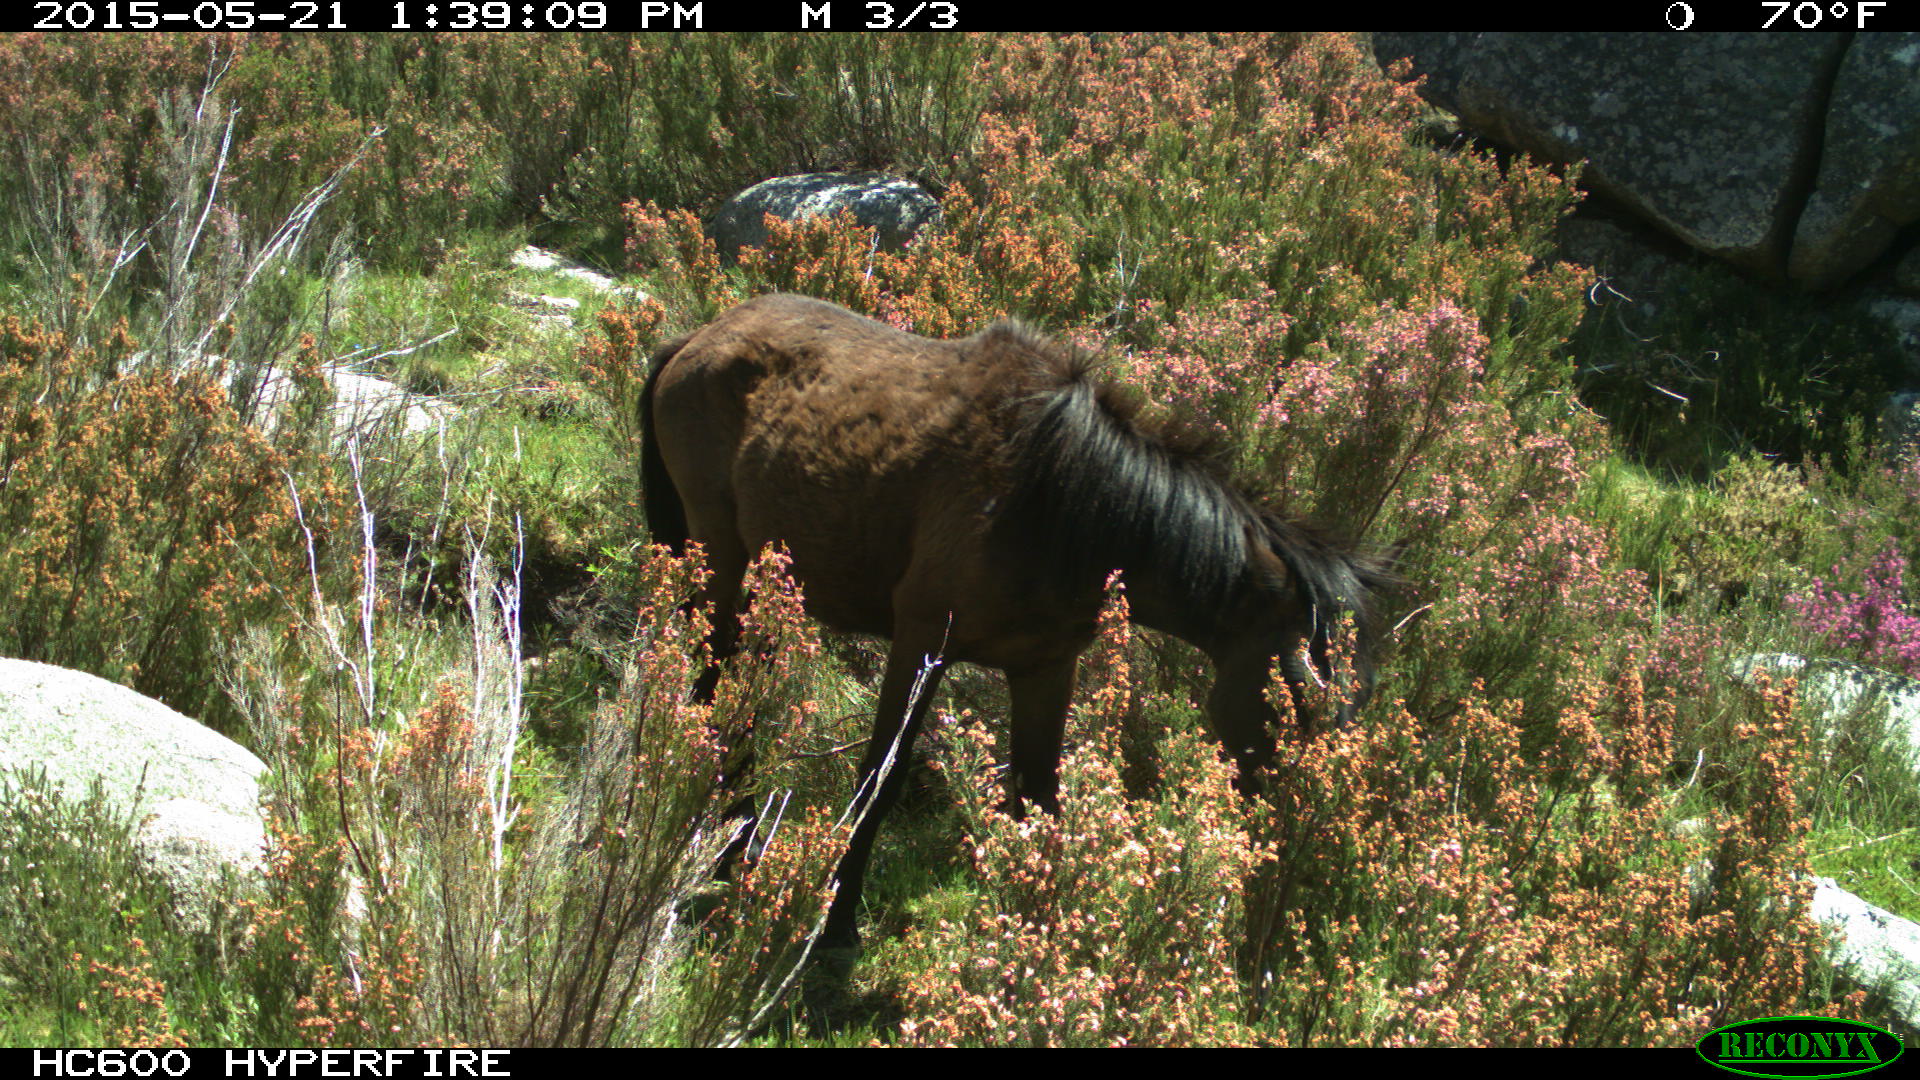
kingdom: Animalia
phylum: Chordata
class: Mammalia
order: Perissodactyla
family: Equidae
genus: Equus
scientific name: Equus caballus
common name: Horse
